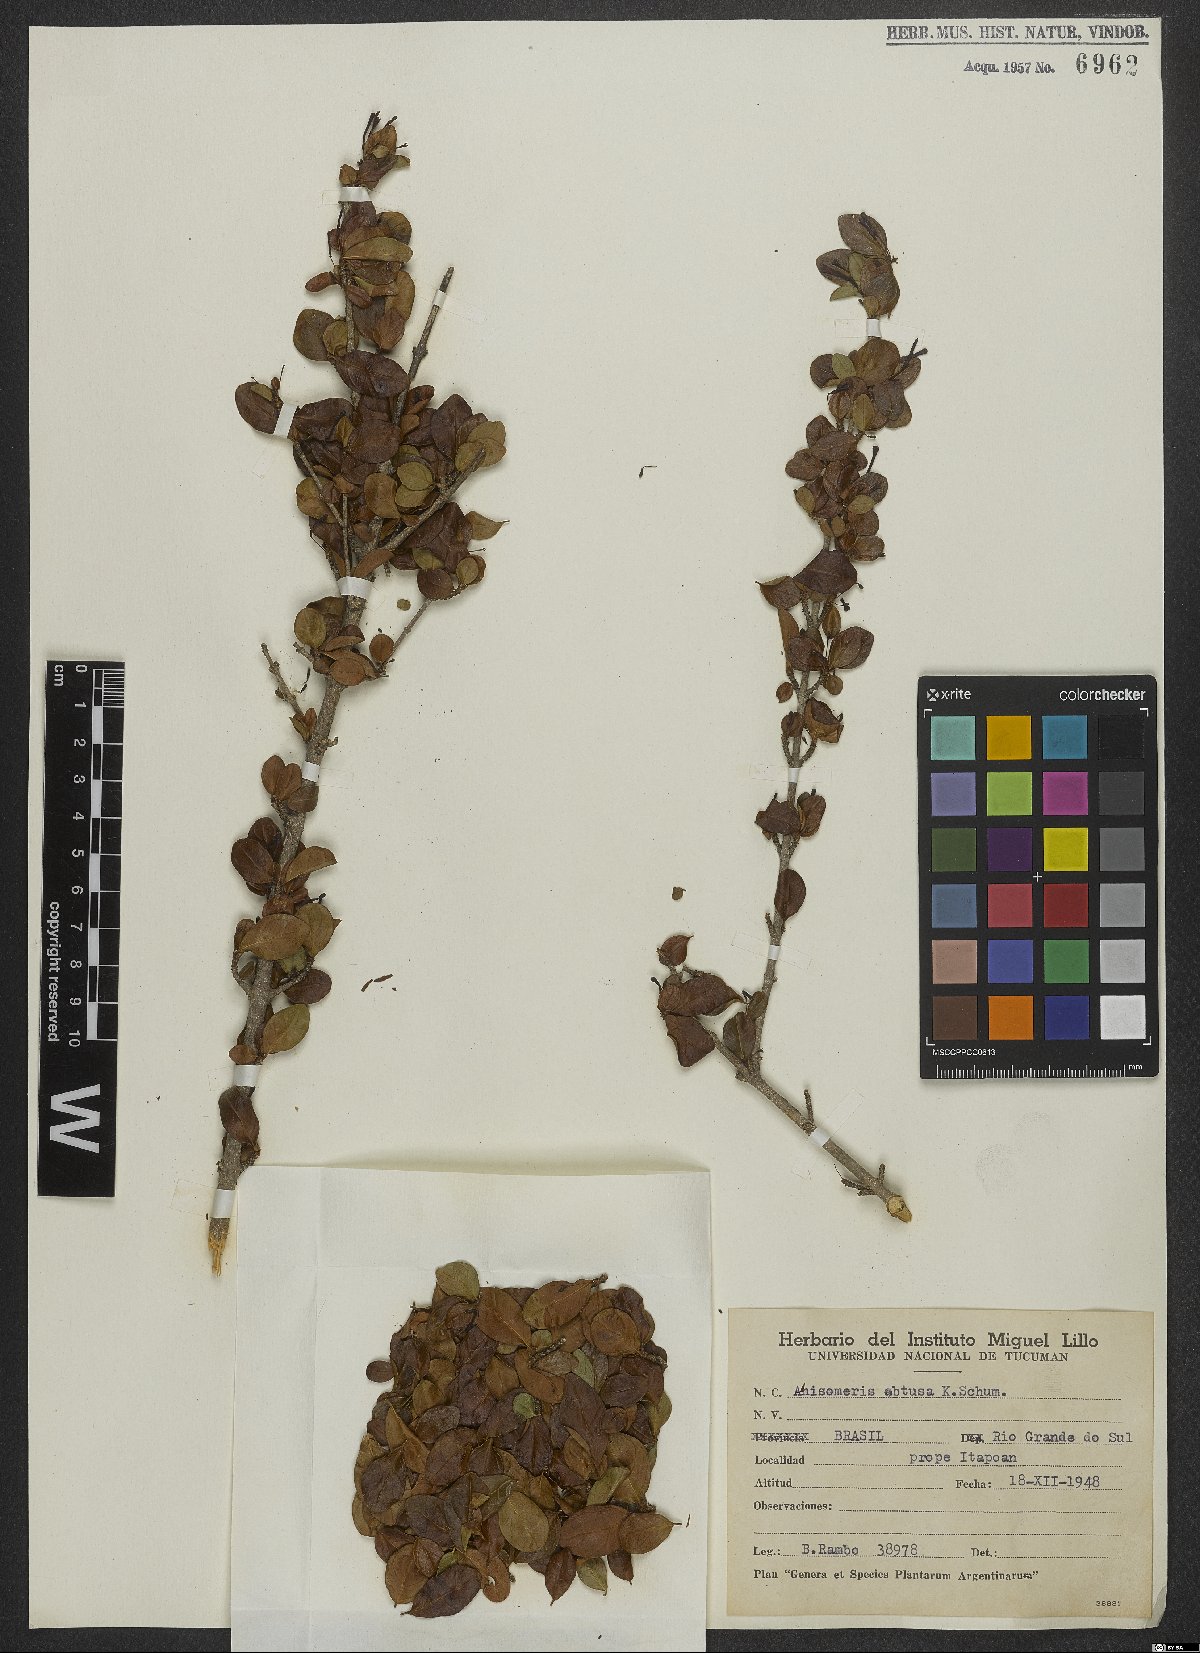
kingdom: Plantae
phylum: Tracheophyta
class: Magnoliopsida
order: Gentianales
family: Rubiaceae
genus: Chomelia
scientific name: Chomelia obtusa
